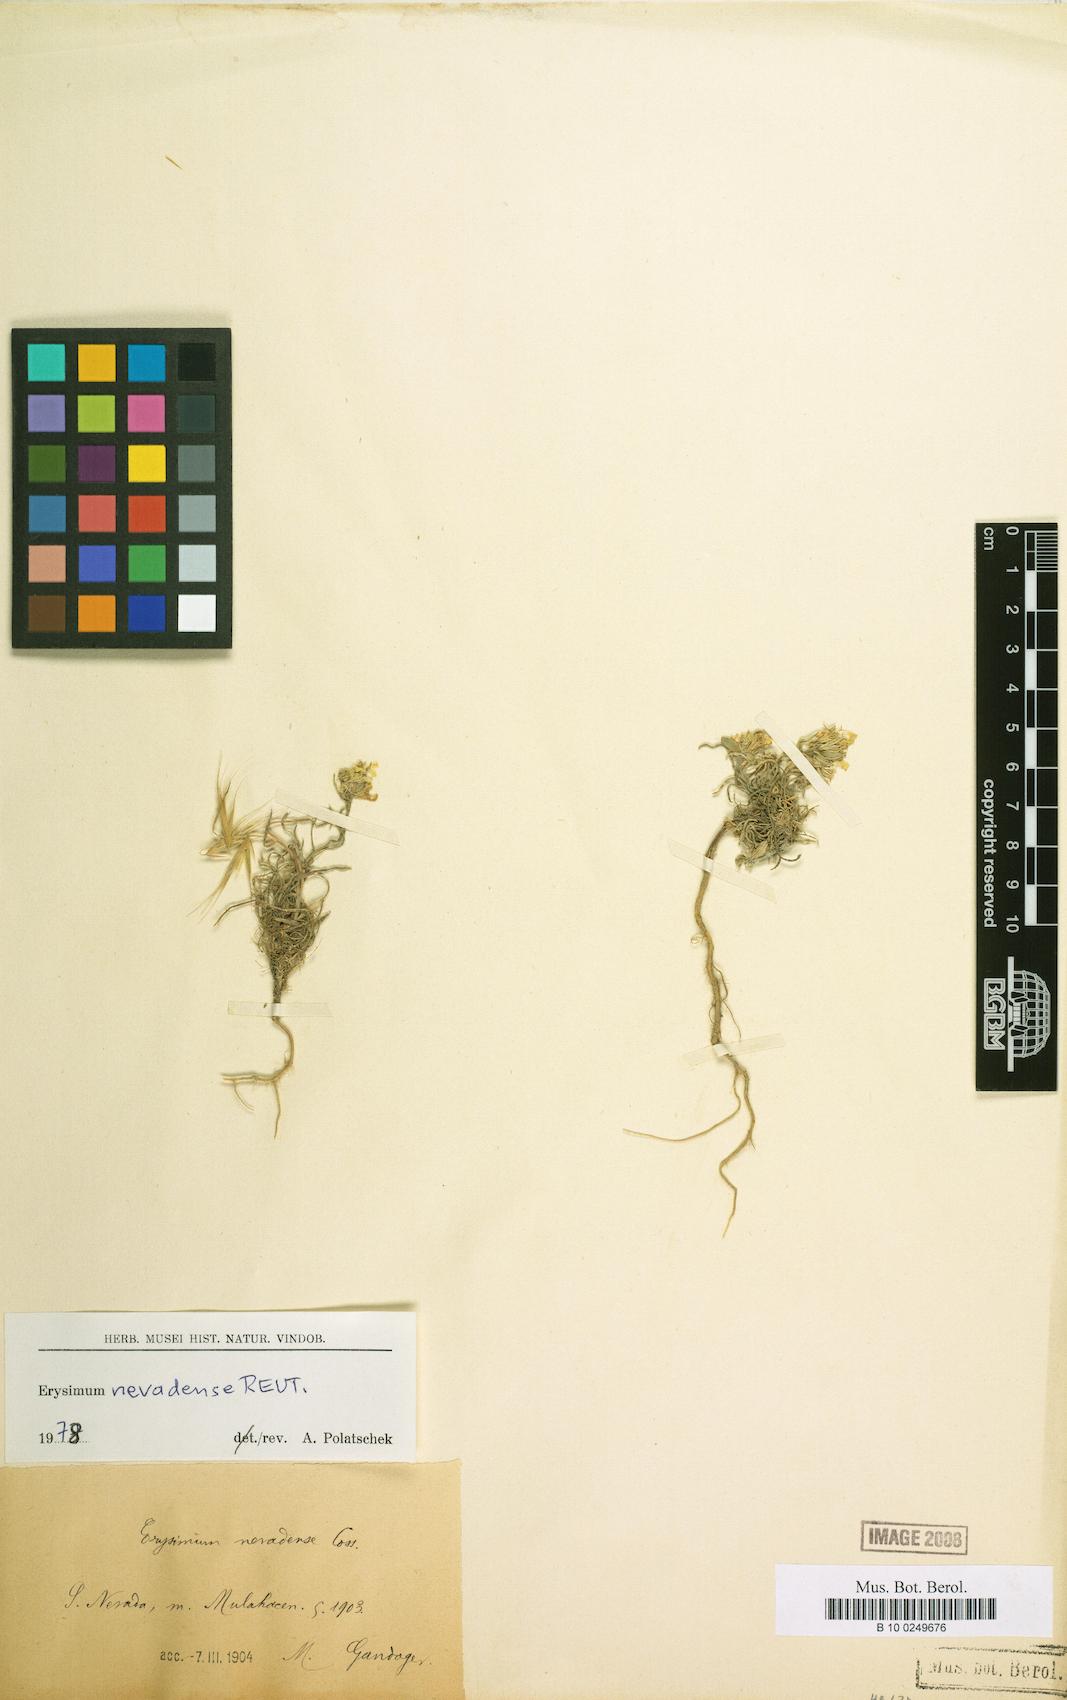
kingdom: Plantae
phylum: Tracheophyta
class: Magnoliopsida
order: Brassicales
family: Brassicaceae
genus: Erysimum
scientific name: Erysimum perenne
